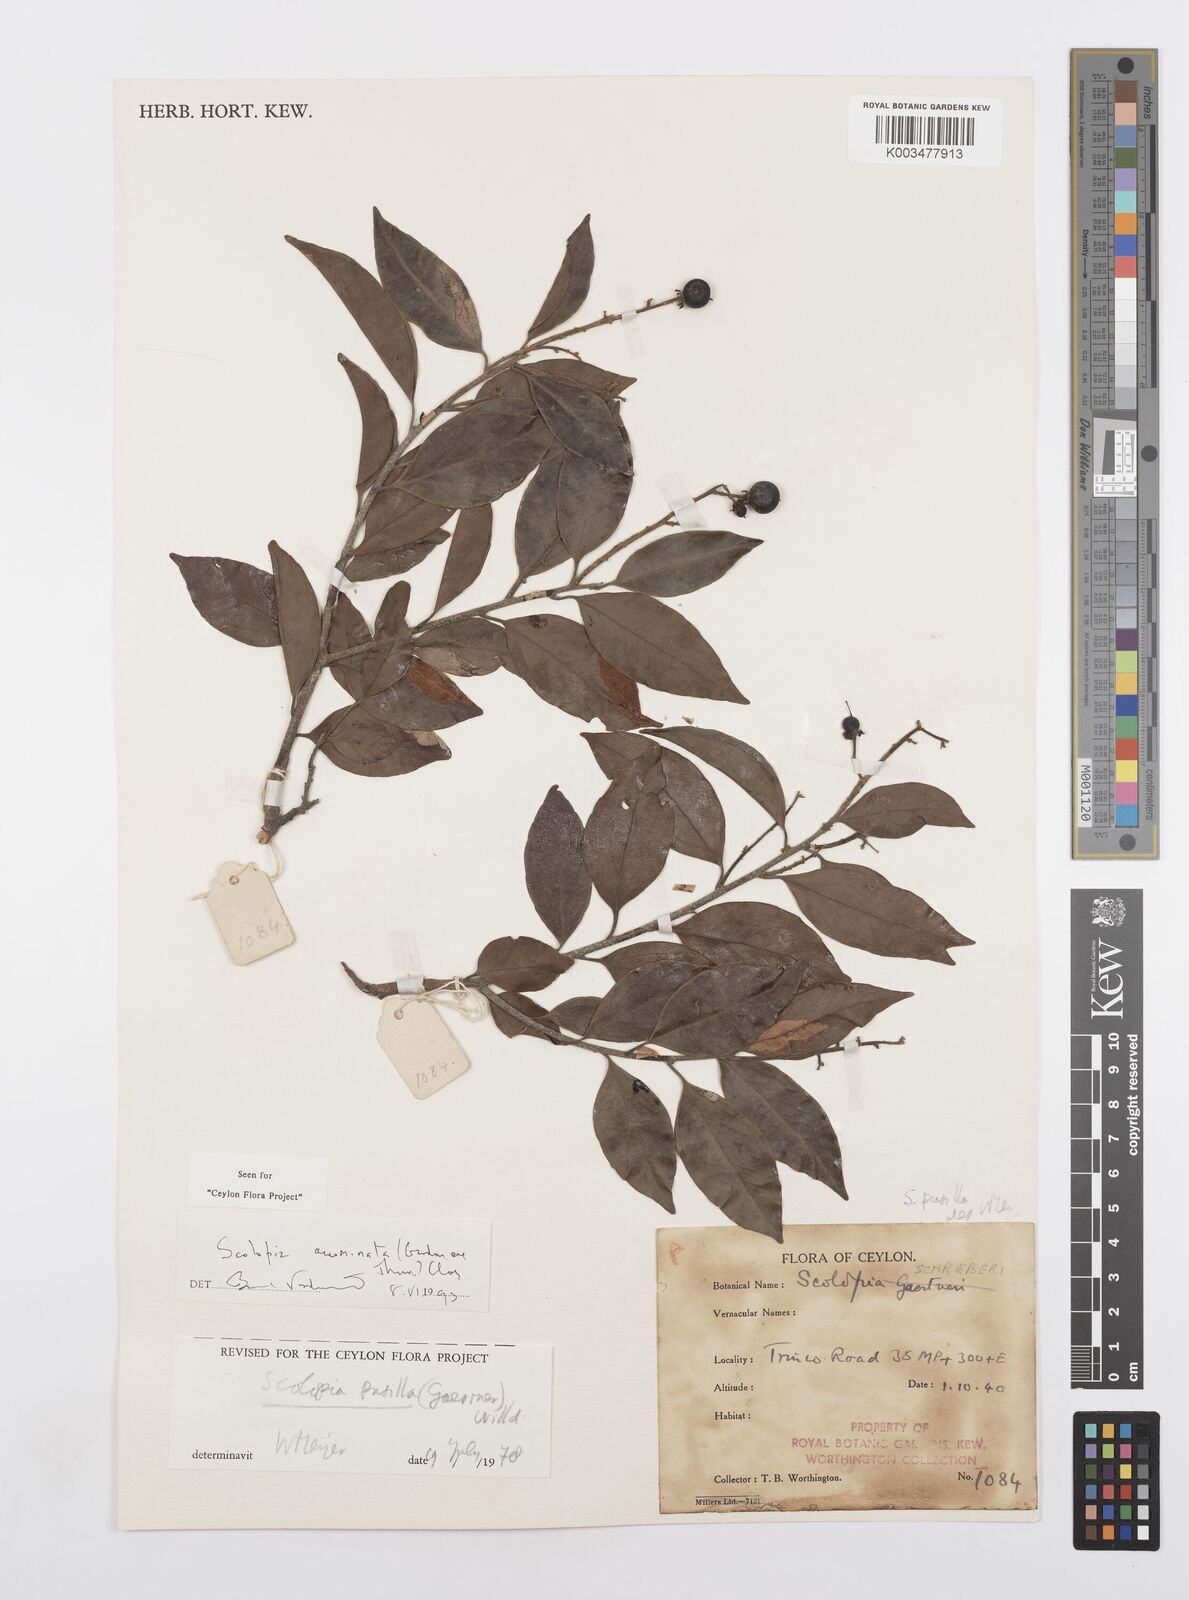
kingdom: Plantae
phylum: Tracheophyta
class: Magnoliopsida
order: Malpighiales
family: Salicaceae
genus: Scolopia
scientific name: Scolopia acuminata
